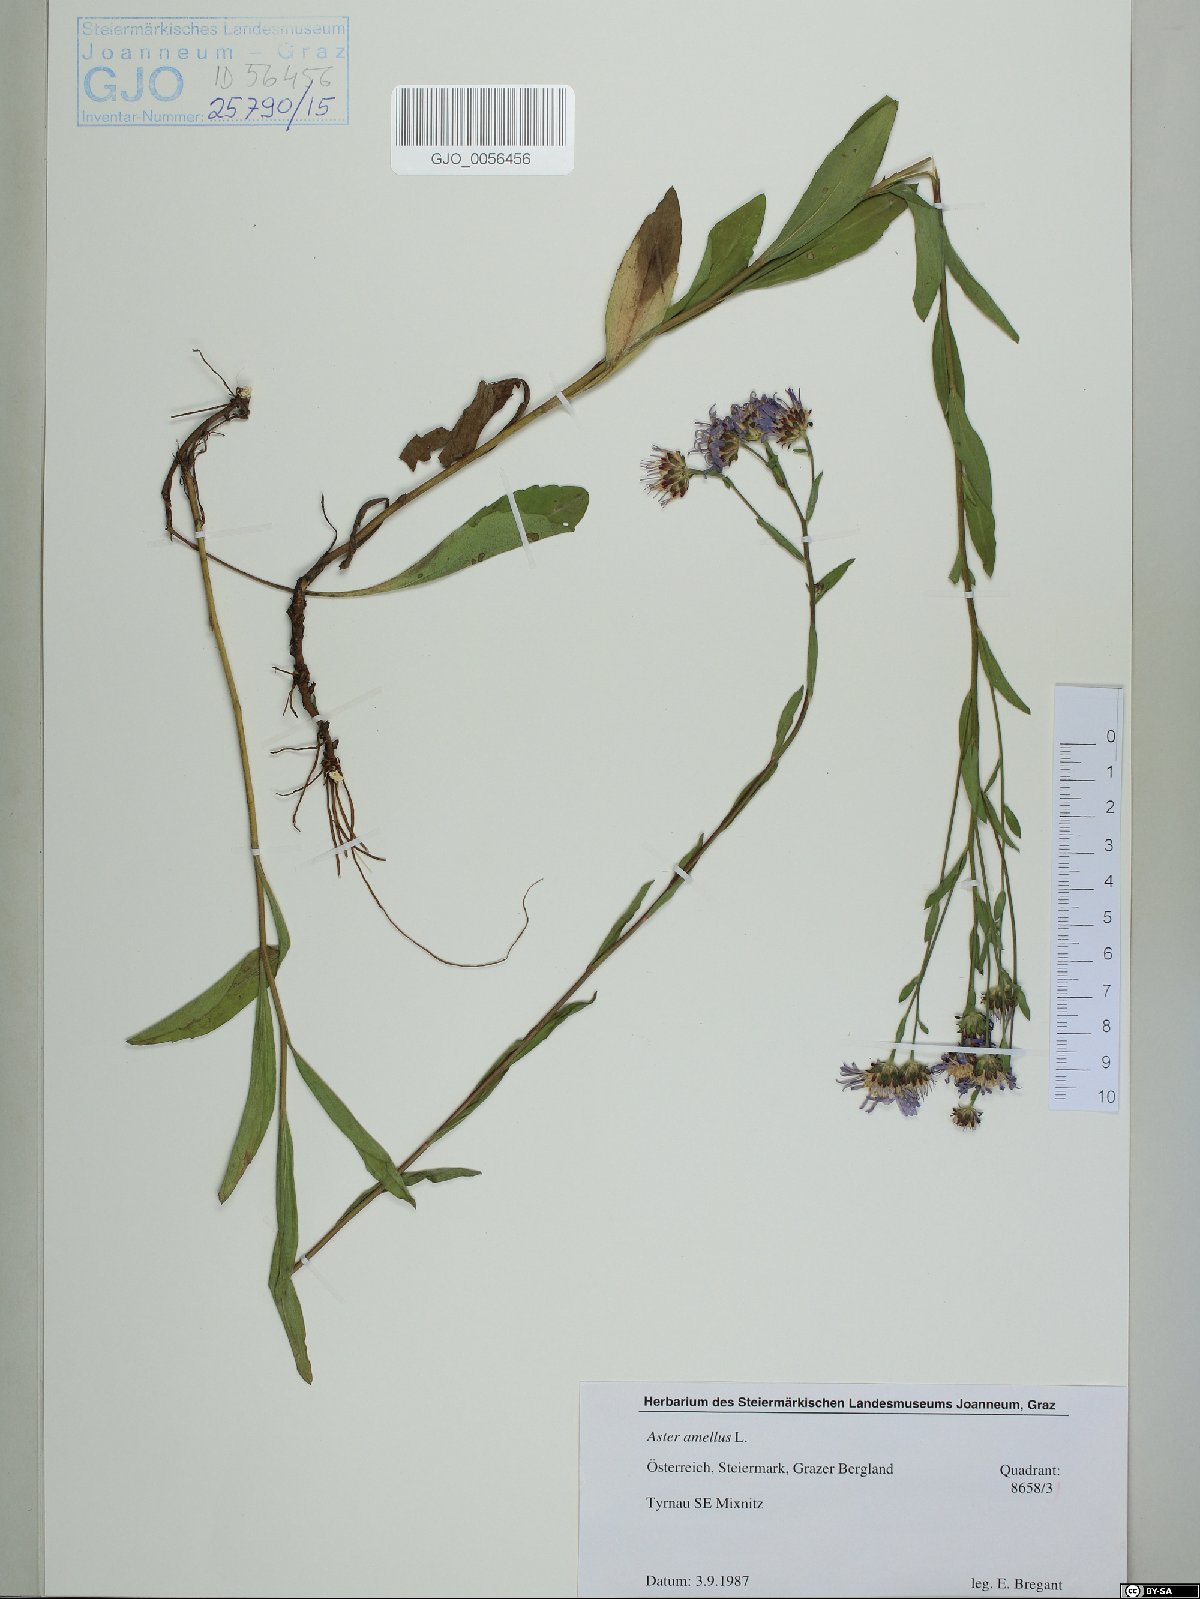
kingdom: Plantae
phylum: Tracheophyta
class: Magnoliopsida
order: Asterales
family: Asteraceae
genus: Aster
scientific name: Aster amellus
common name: European michaelmas daisy
